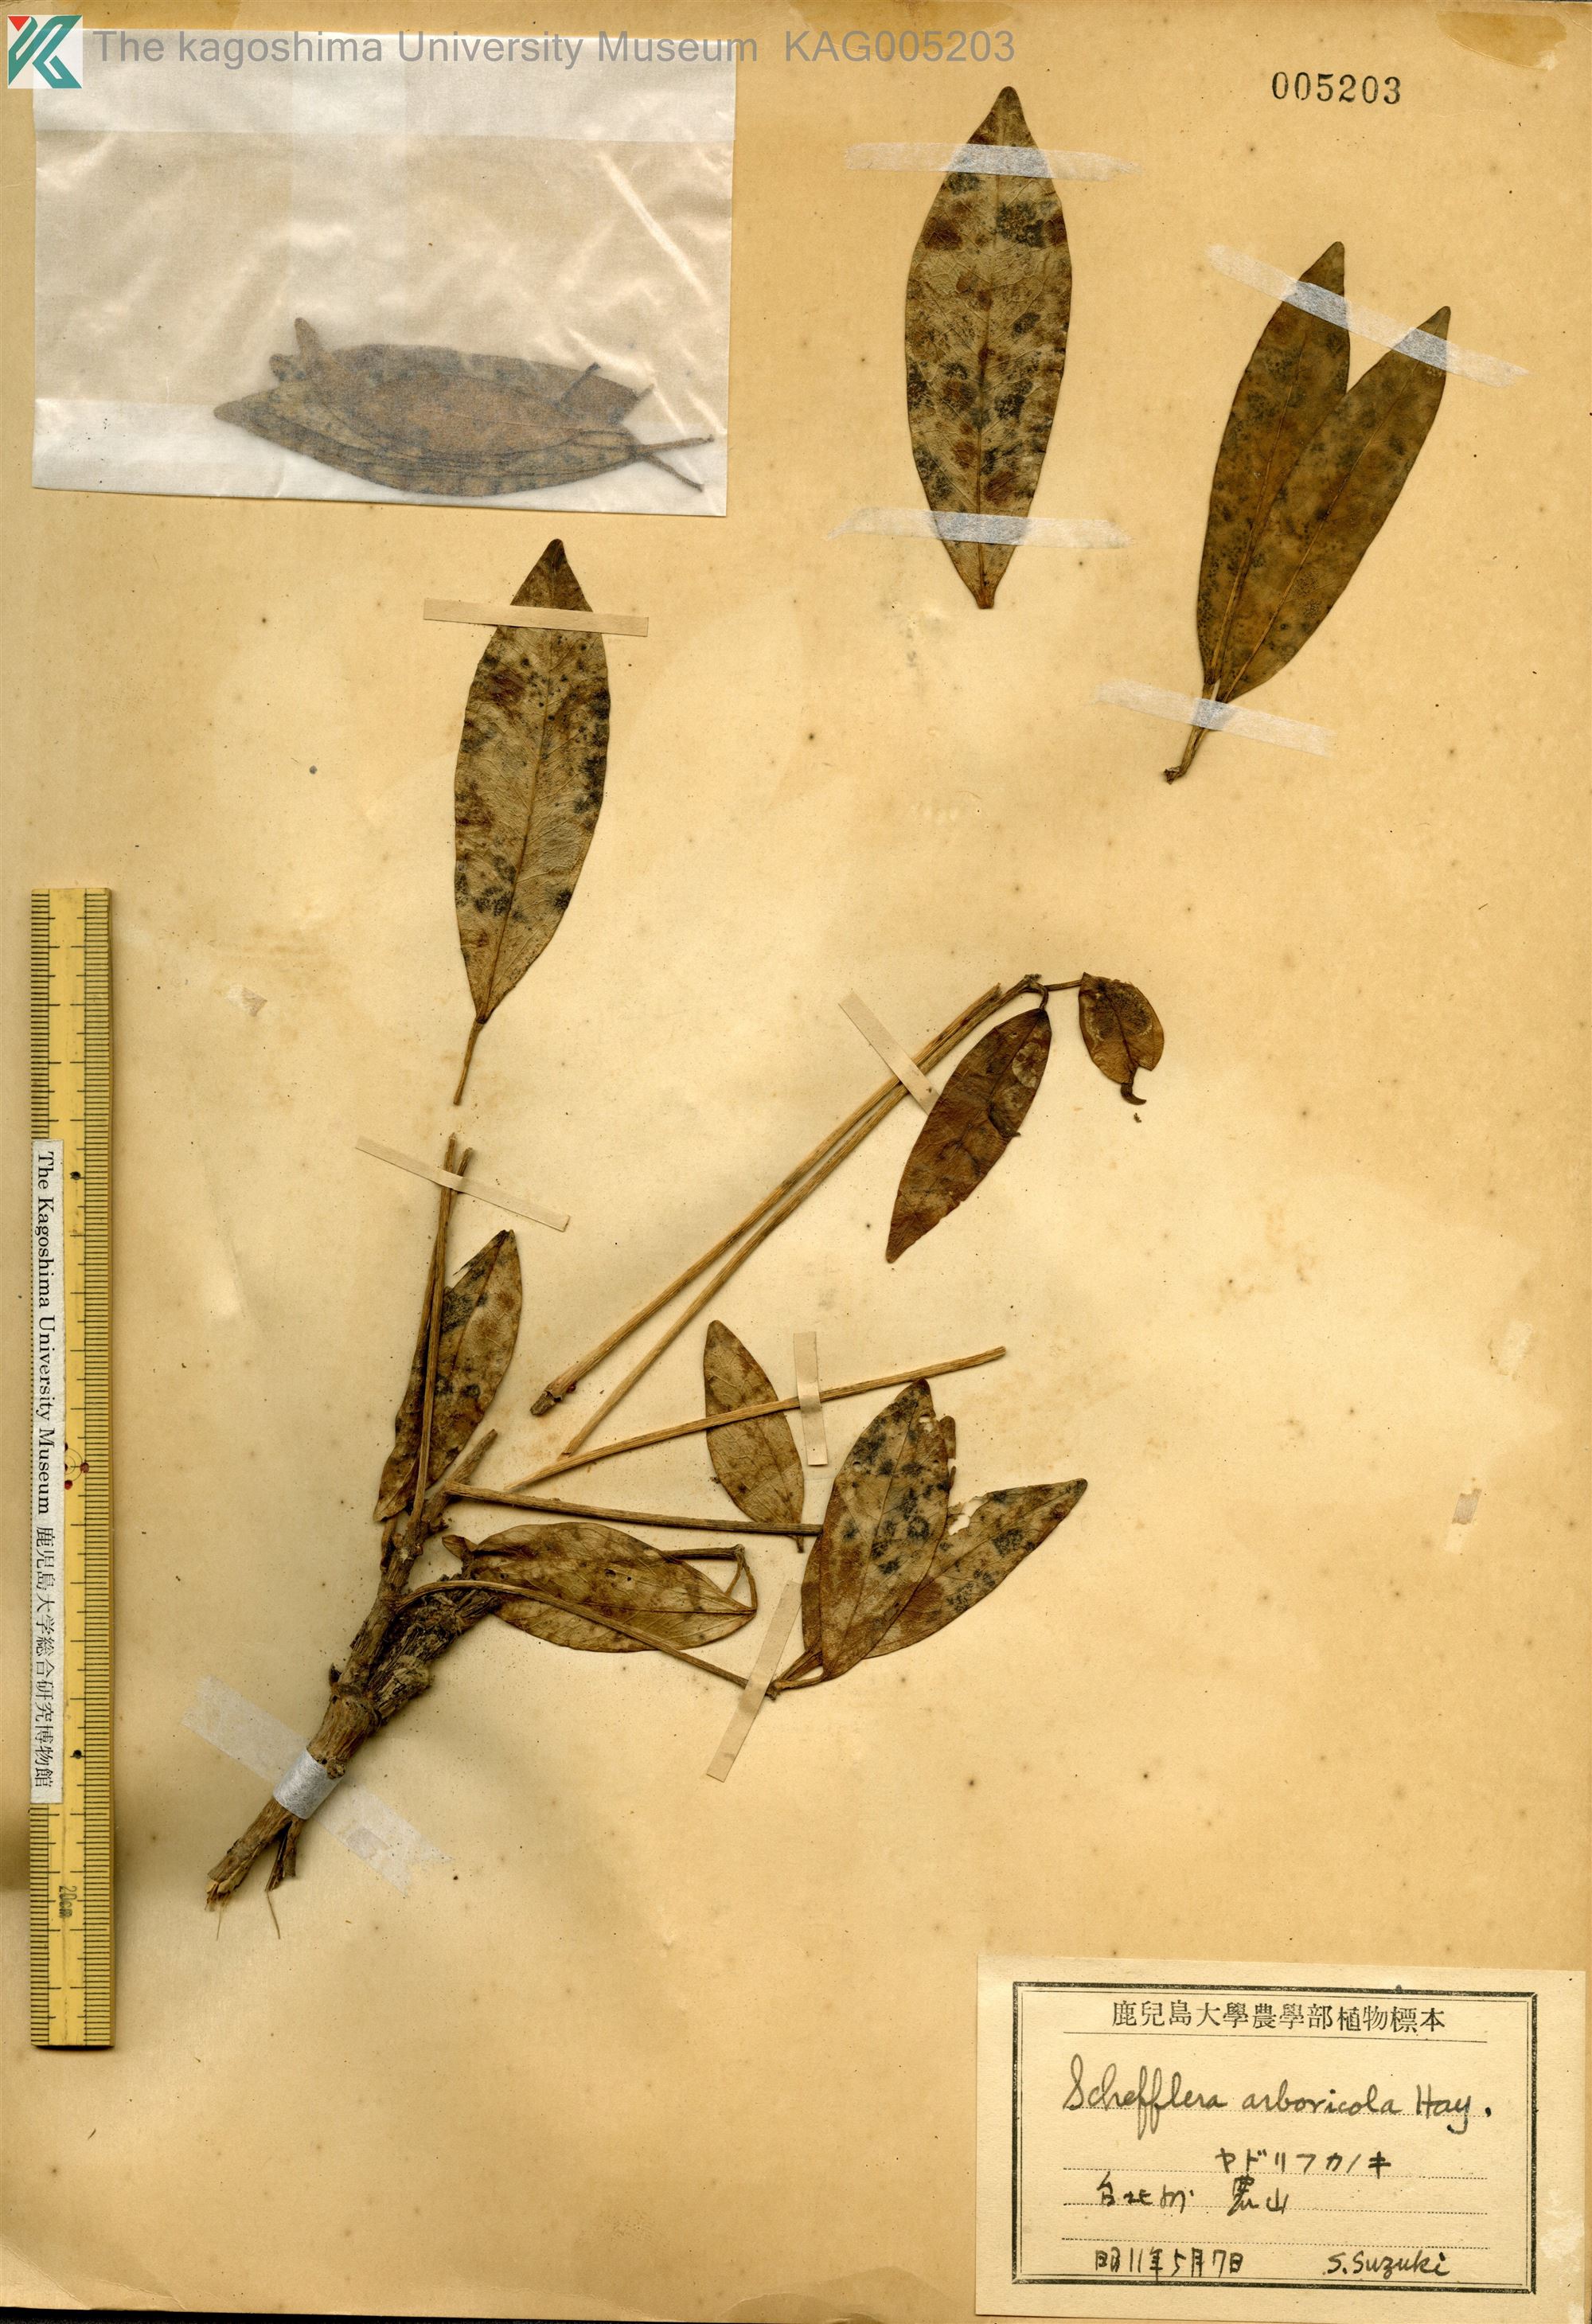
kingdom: Plantae
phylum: Tracheophyta
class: Magnoliopsida
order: Apiales
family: Araliaceae
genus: Heptapleurum
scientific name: Heptapleurum arboricola
